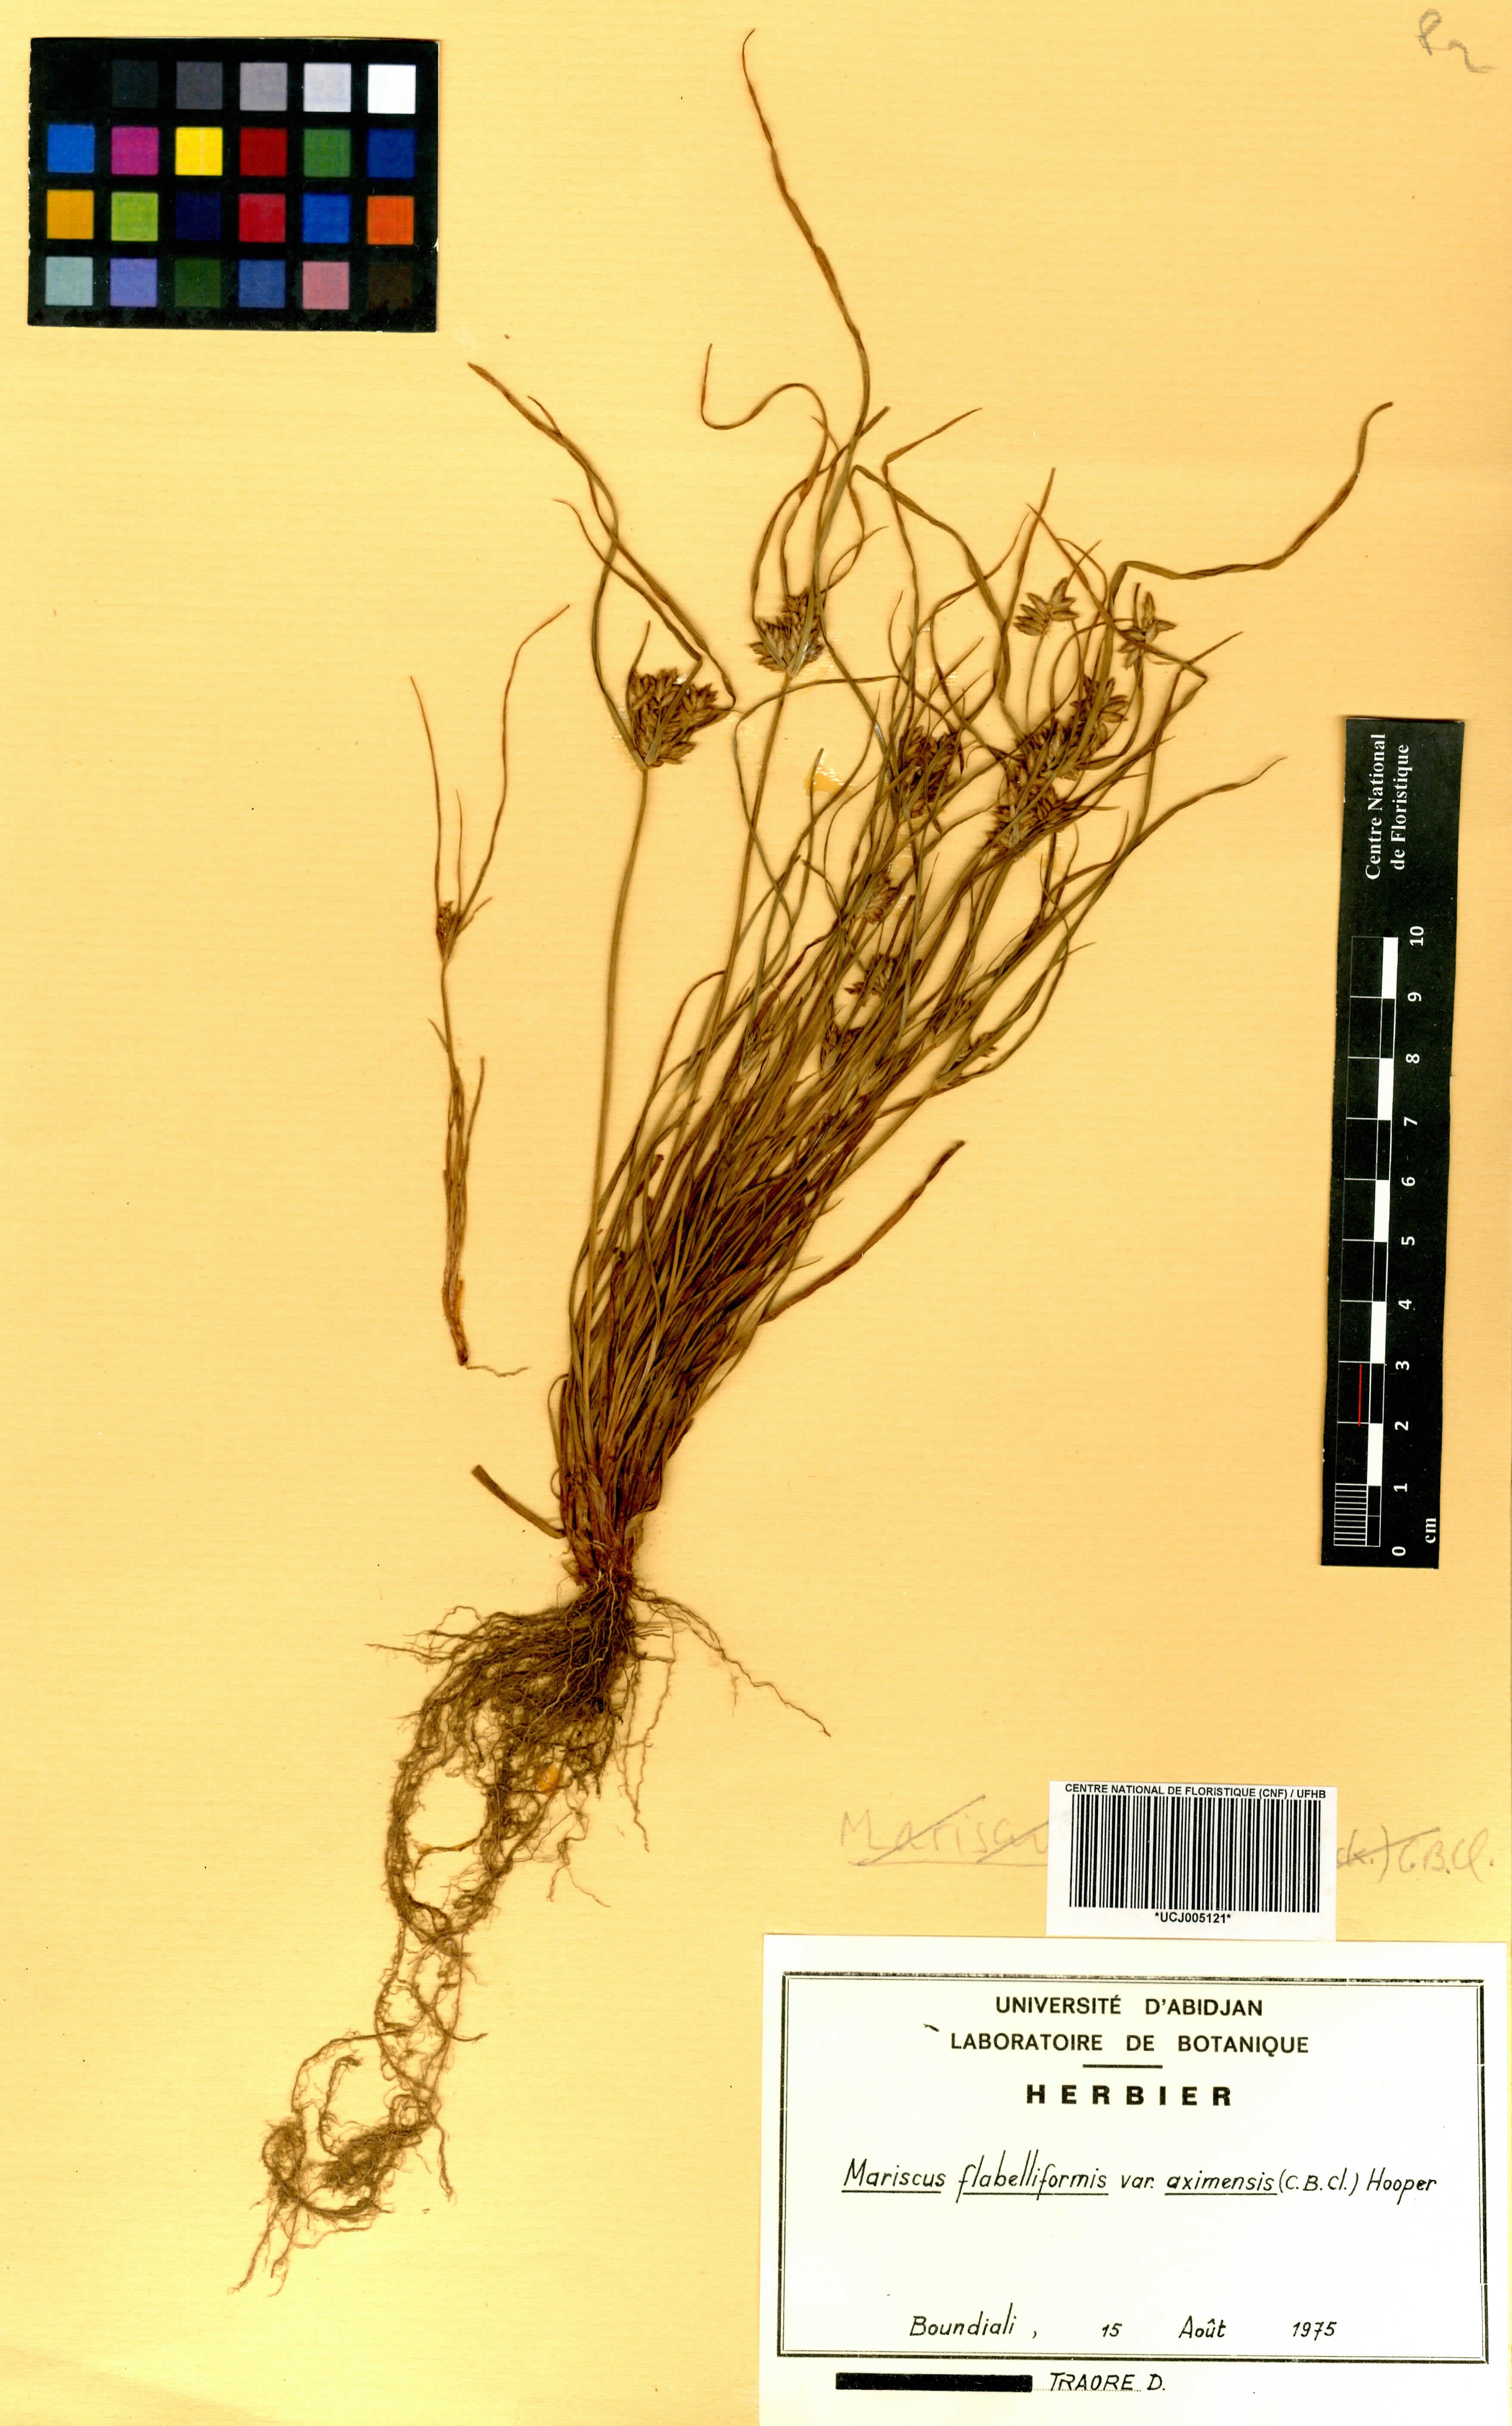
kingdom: Plantae
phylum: Tracheophyta
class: Liliopsida
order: Poales
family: Cyperaceae
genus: Cyperus
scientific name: Cyperus tenuis
